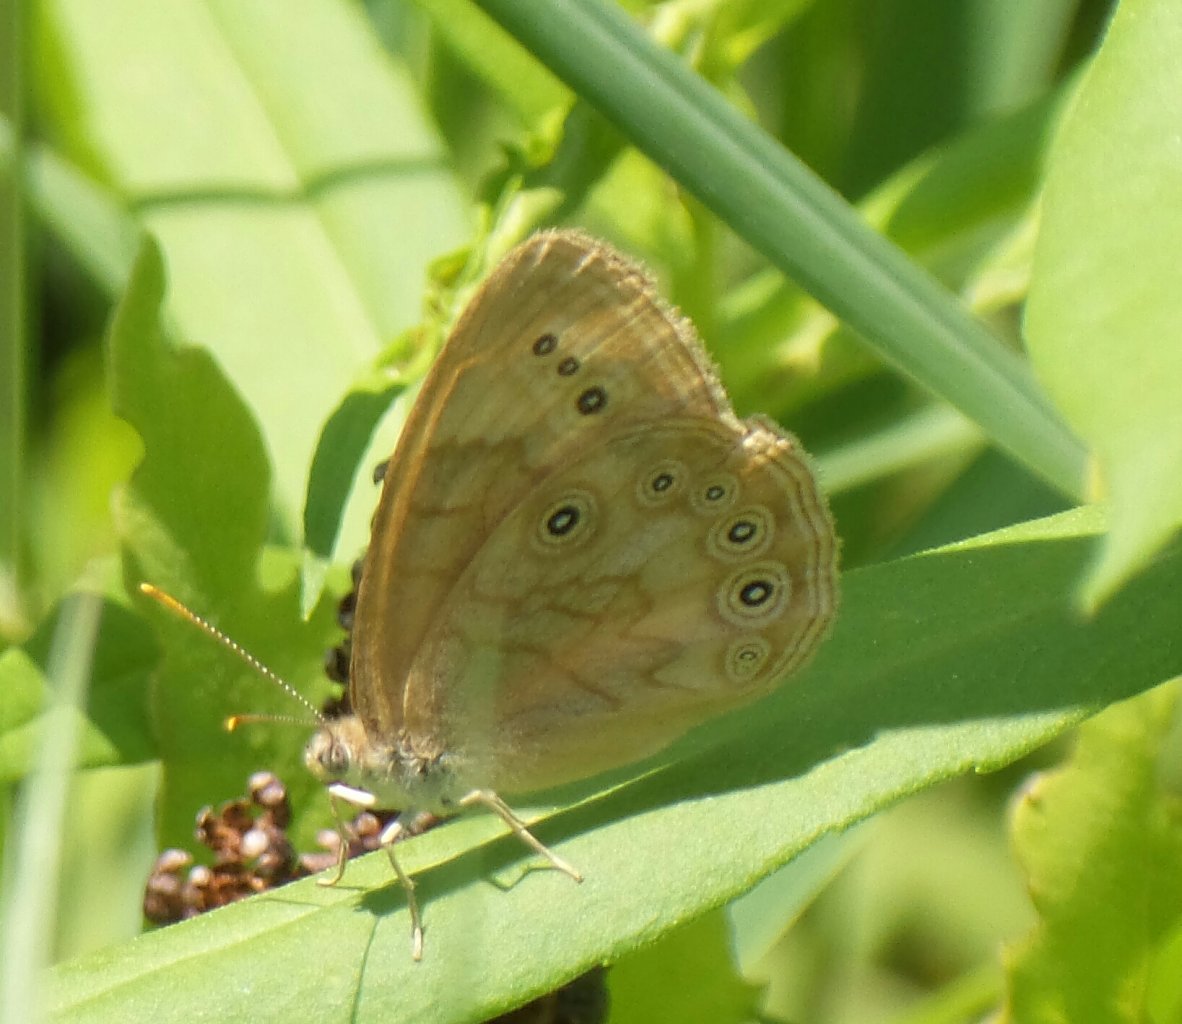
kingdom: Animalia
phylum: Arthropoda
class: Insecta
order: Lepidoptera
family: Nymphalidae
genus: Lethe
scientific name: Lethe eurydice
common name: Eyed Brown
